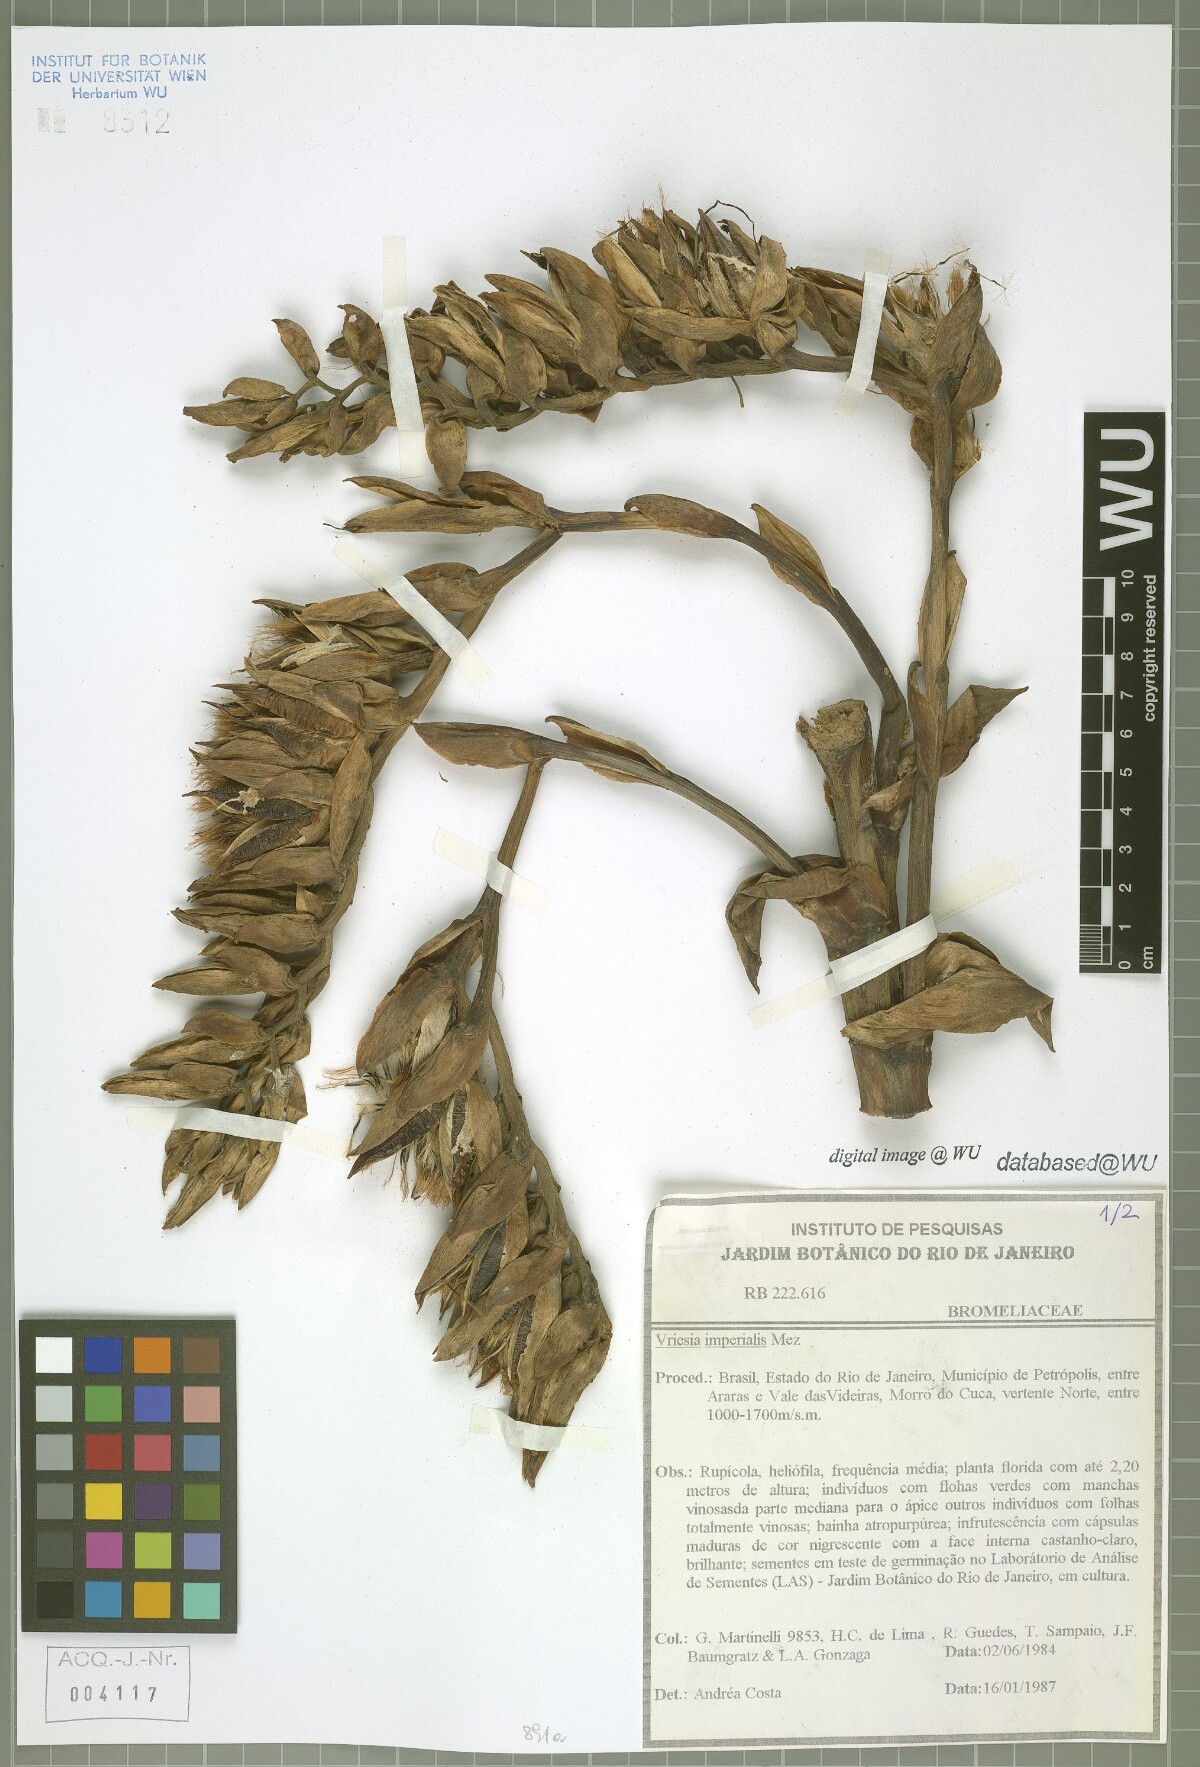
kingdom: Plantae
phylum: Tracheophyta
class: Liliopsida
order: Poales
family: Bromeliaceae
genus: Alcantarea
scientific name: Alcantarea imperialis
